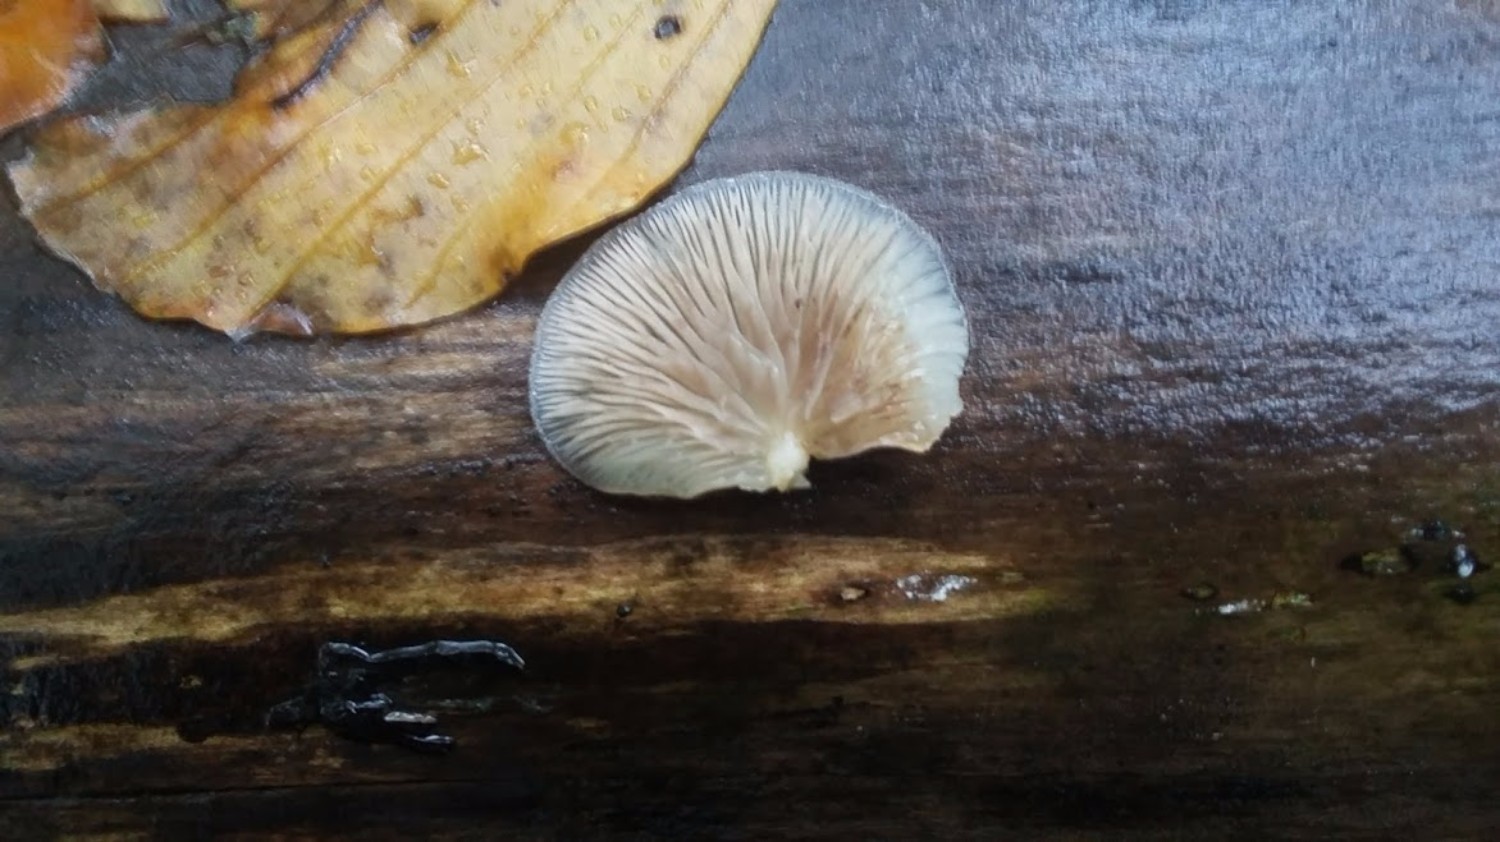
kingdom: Fungi
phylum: Basidiomycota
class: Agaricomycetes
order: Agaricales
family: Crepidotaceae
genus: Crepidotus
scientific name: Crepidotus
